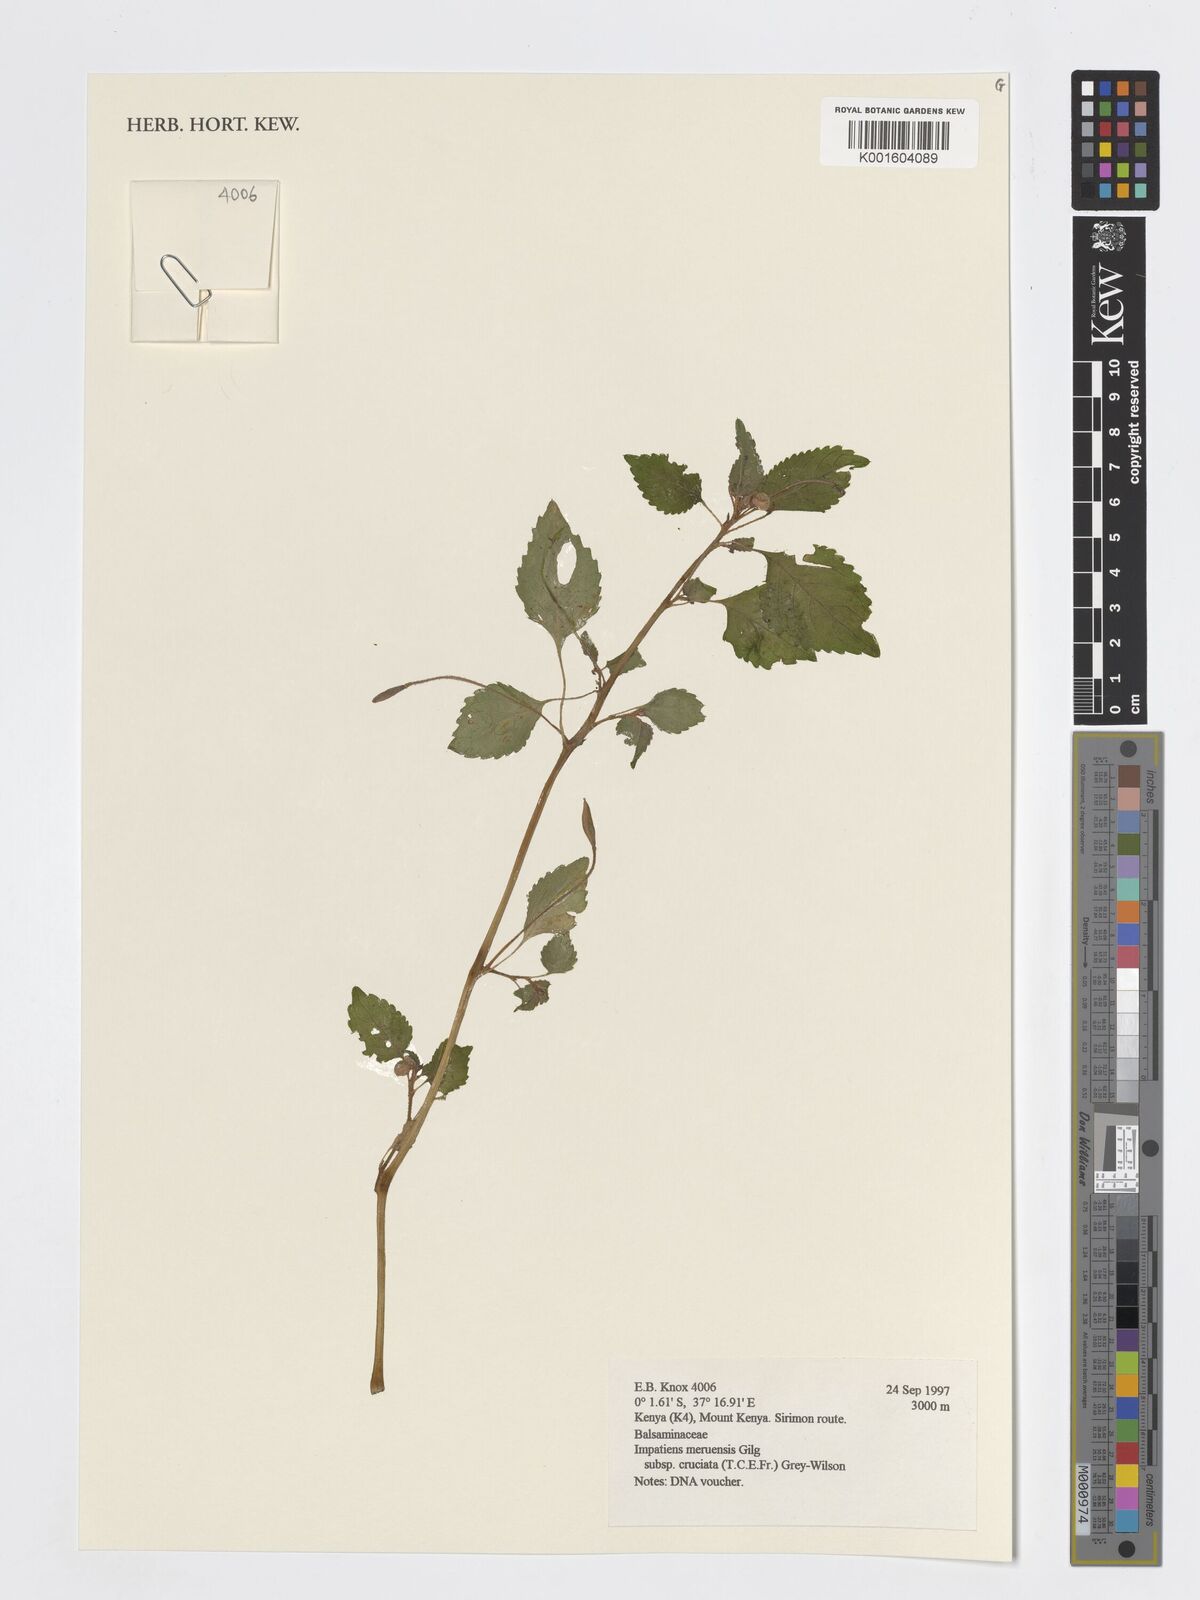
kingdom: Plantae
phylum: Tracheophyta
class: Magnoliopsida
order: Ericales
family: Balsaminaceae
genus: Impatiens
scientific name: Impatiens meruensis
